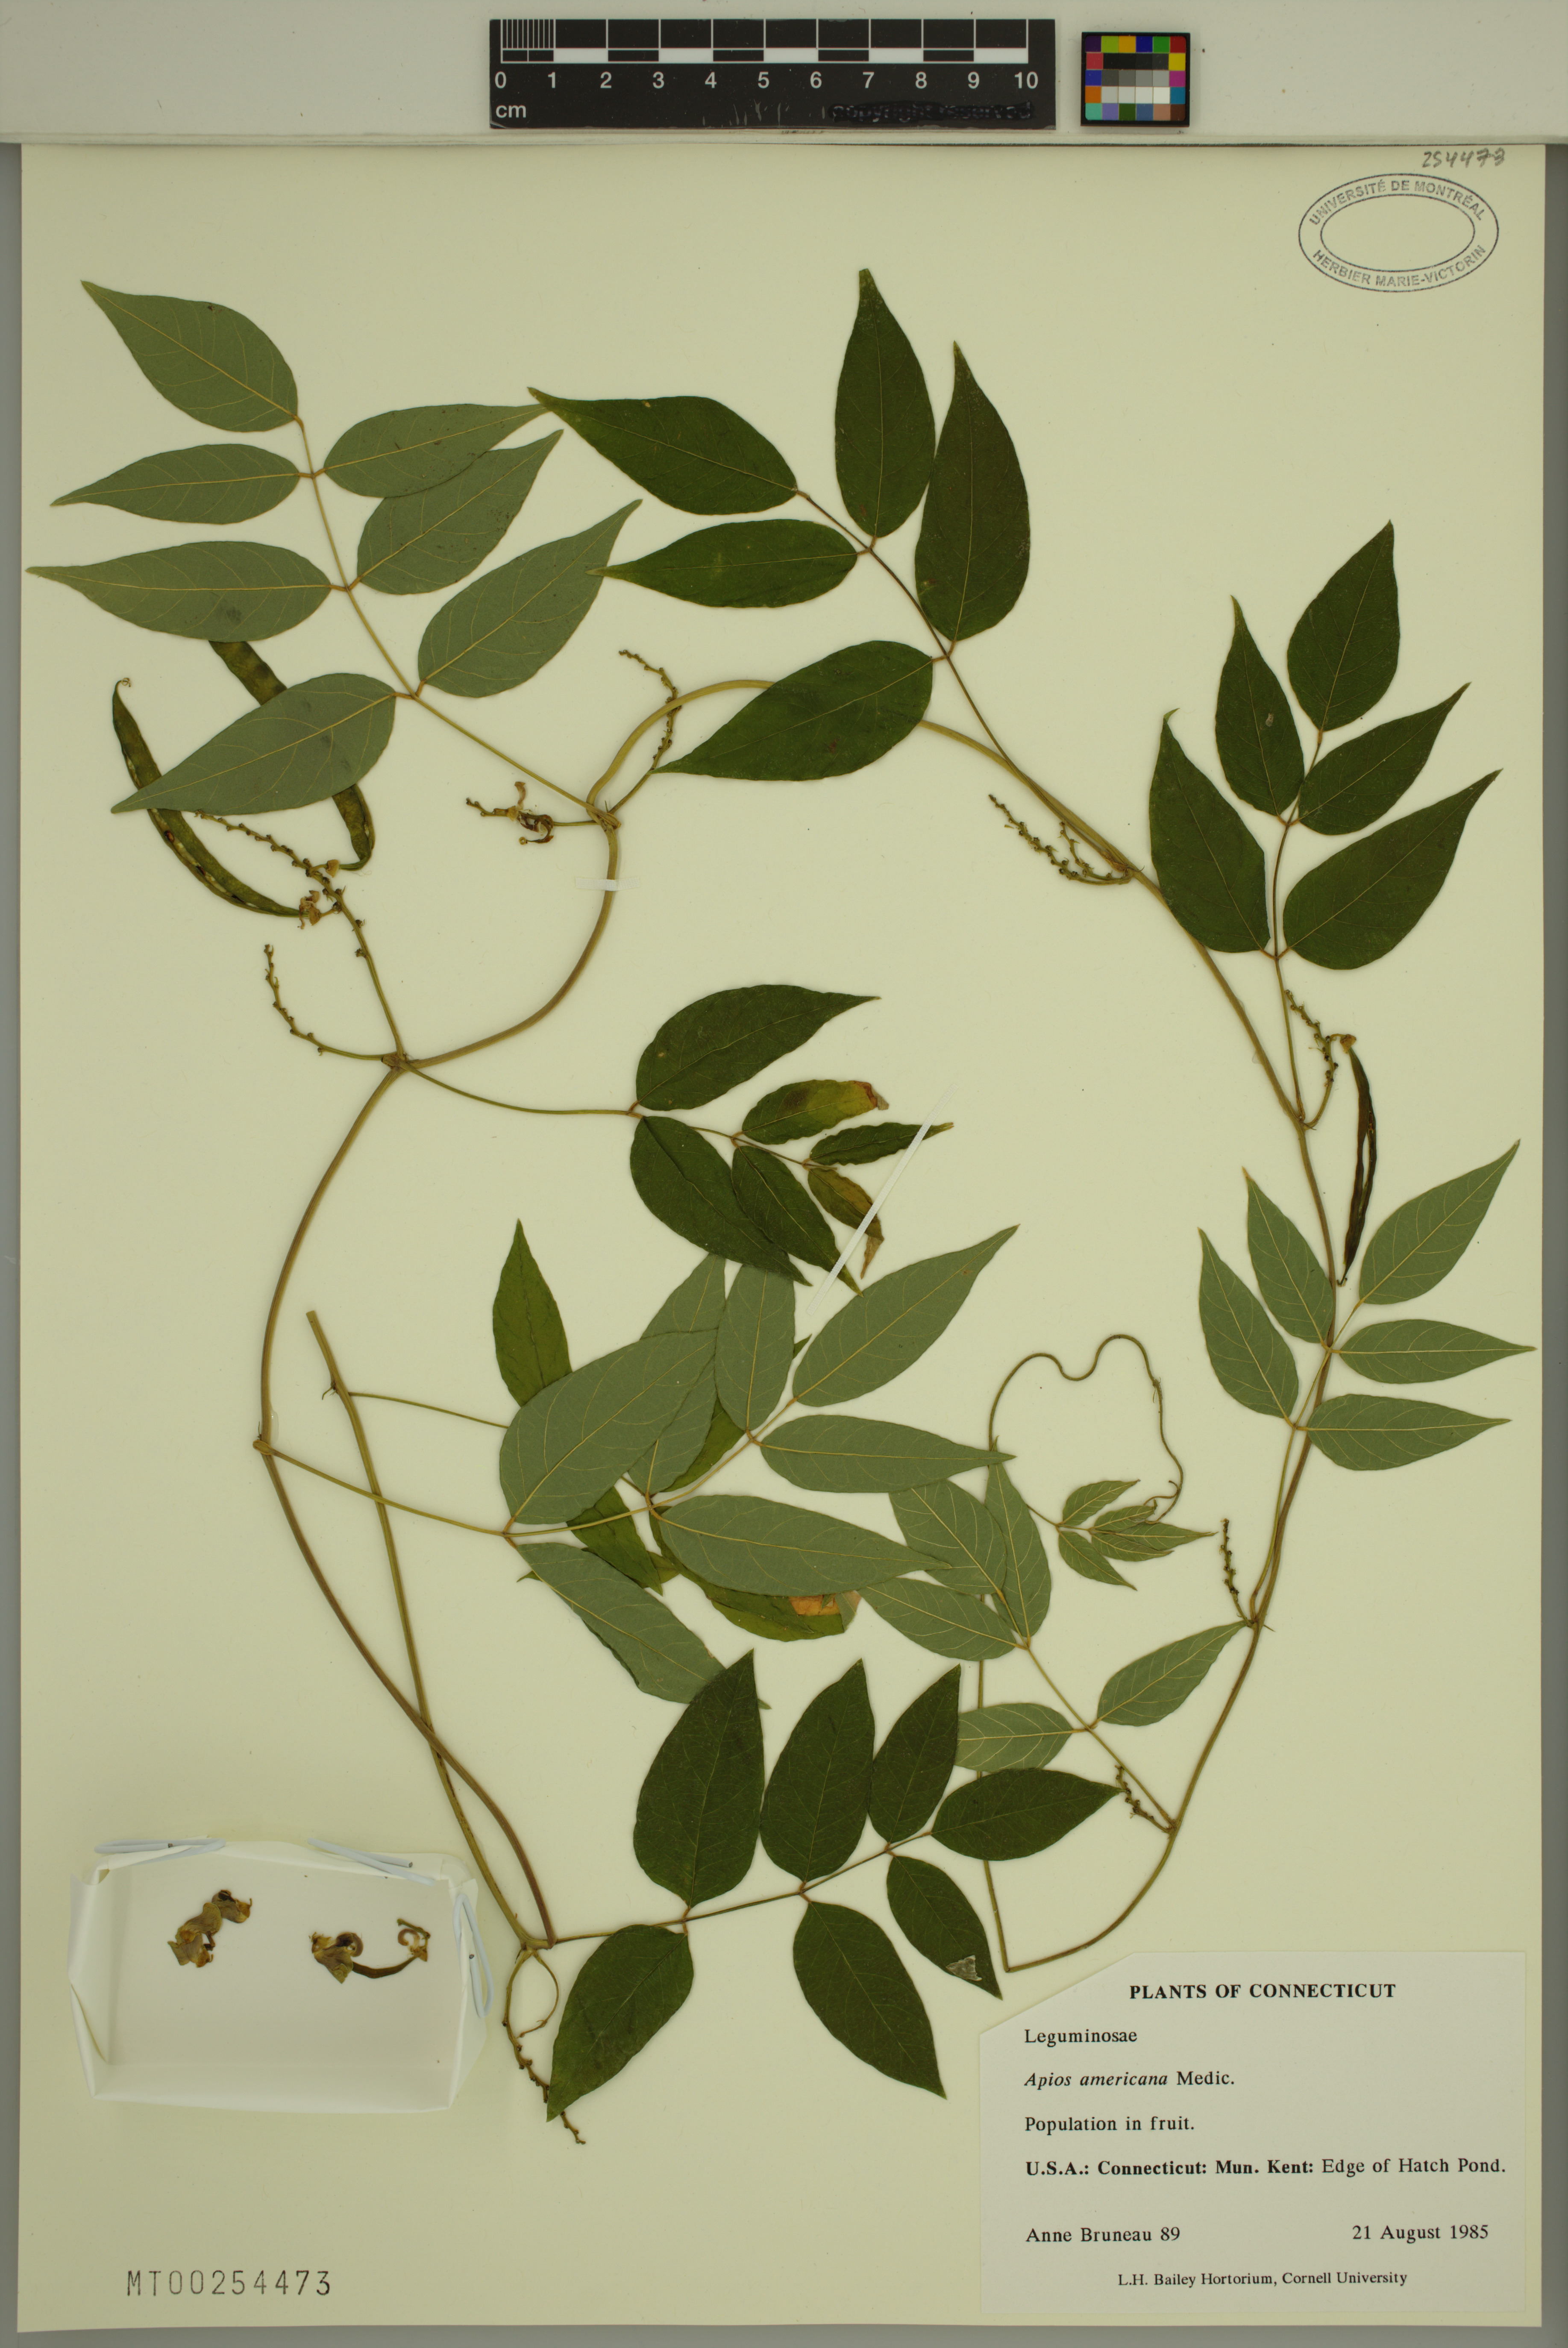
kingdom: Plantae
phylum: Tracheophyta
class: Magnoliopsida
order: Fabales
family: Fabaceae
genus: Apios
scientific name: Apios americana
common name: American potato-bean
